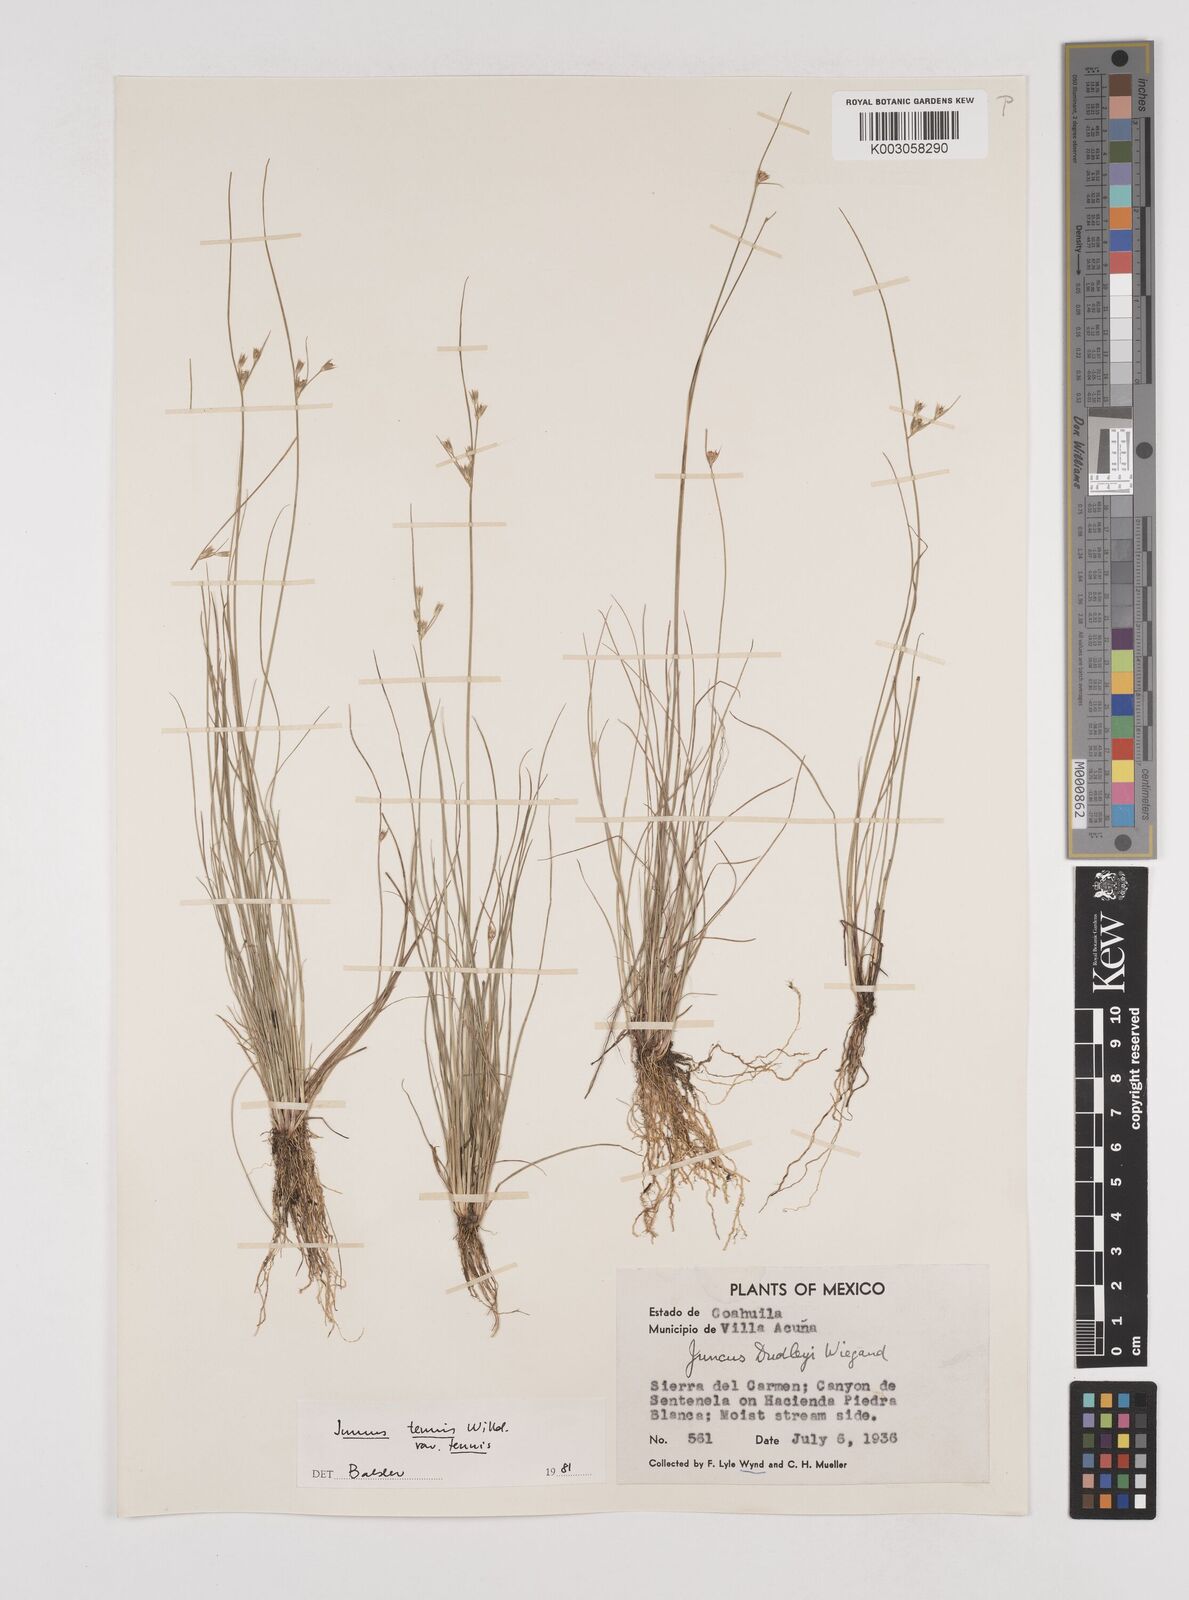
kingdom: Plantae
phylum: Tracheophyta
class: Liliopsida
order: Poales
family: Juncaceae
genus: Juncus
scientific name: Juncus tenuis
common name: Slender rush
